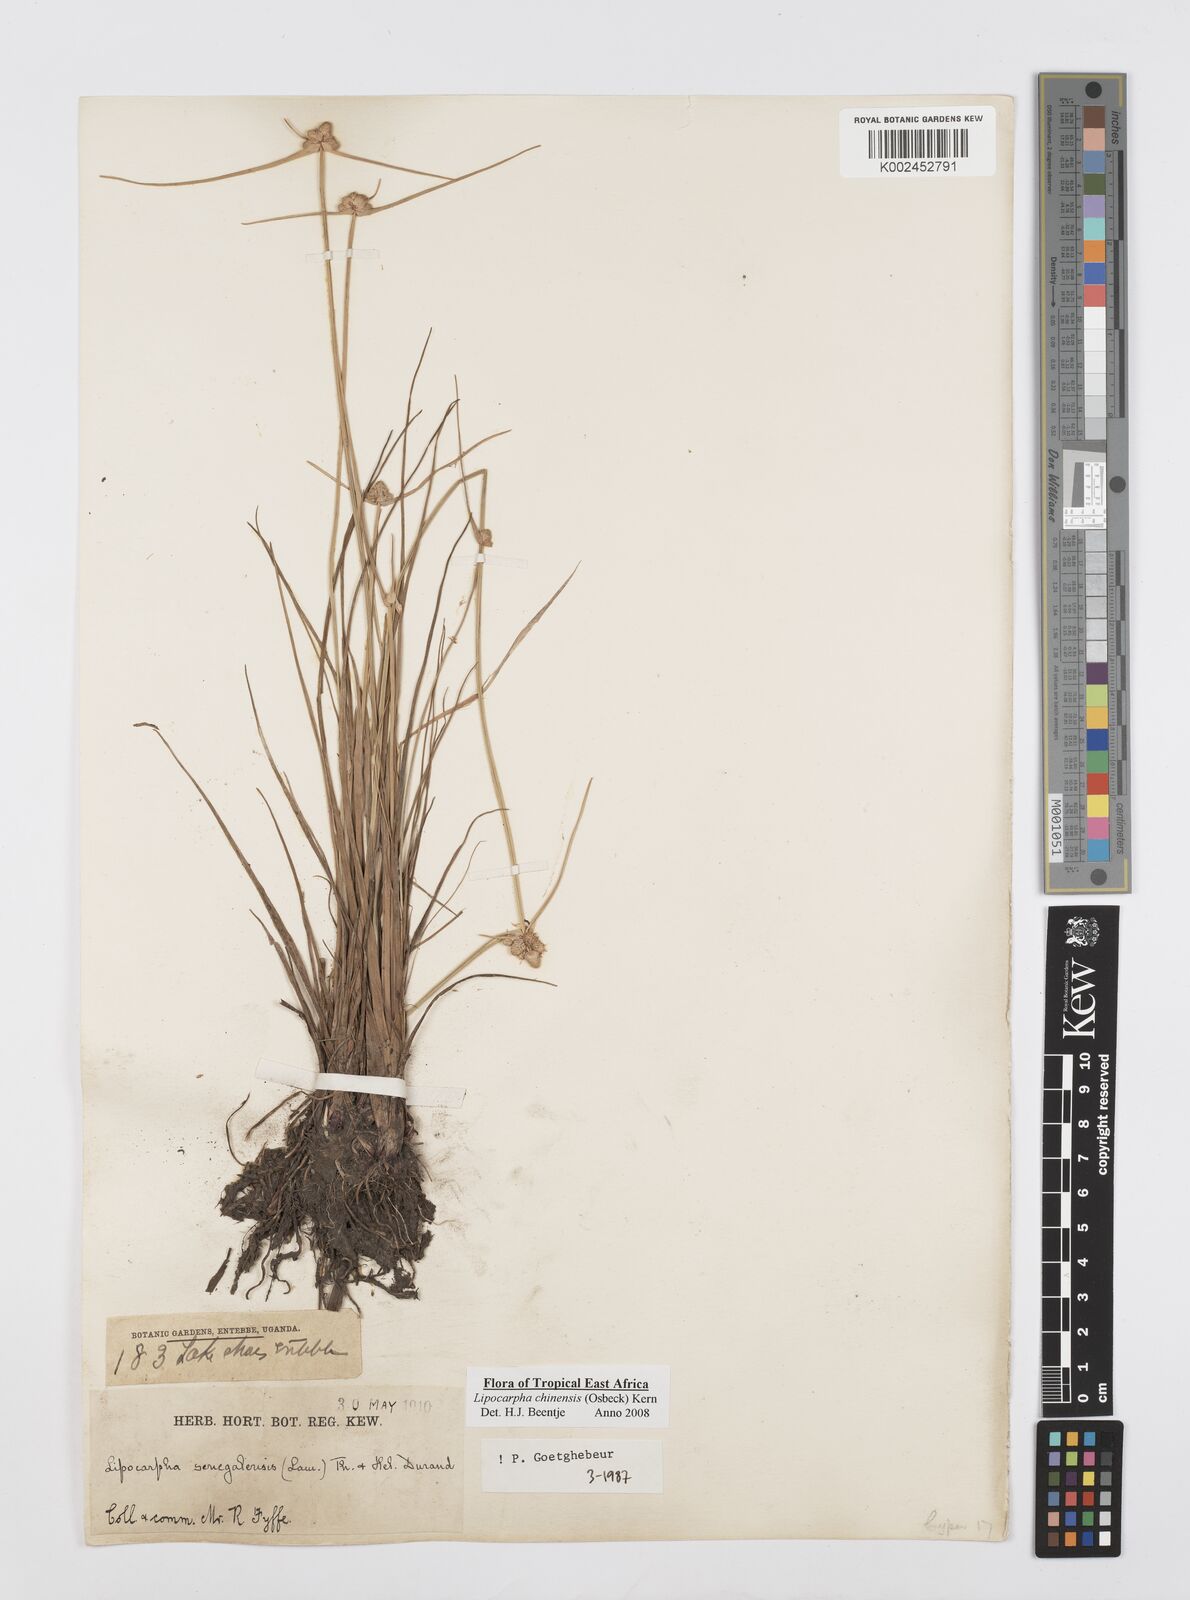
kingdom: Plantae
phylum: Tracheophyta
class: Liliopsida
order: Poales
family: Cyperaceae
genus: Cyperus
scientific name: Cyperus albescens
